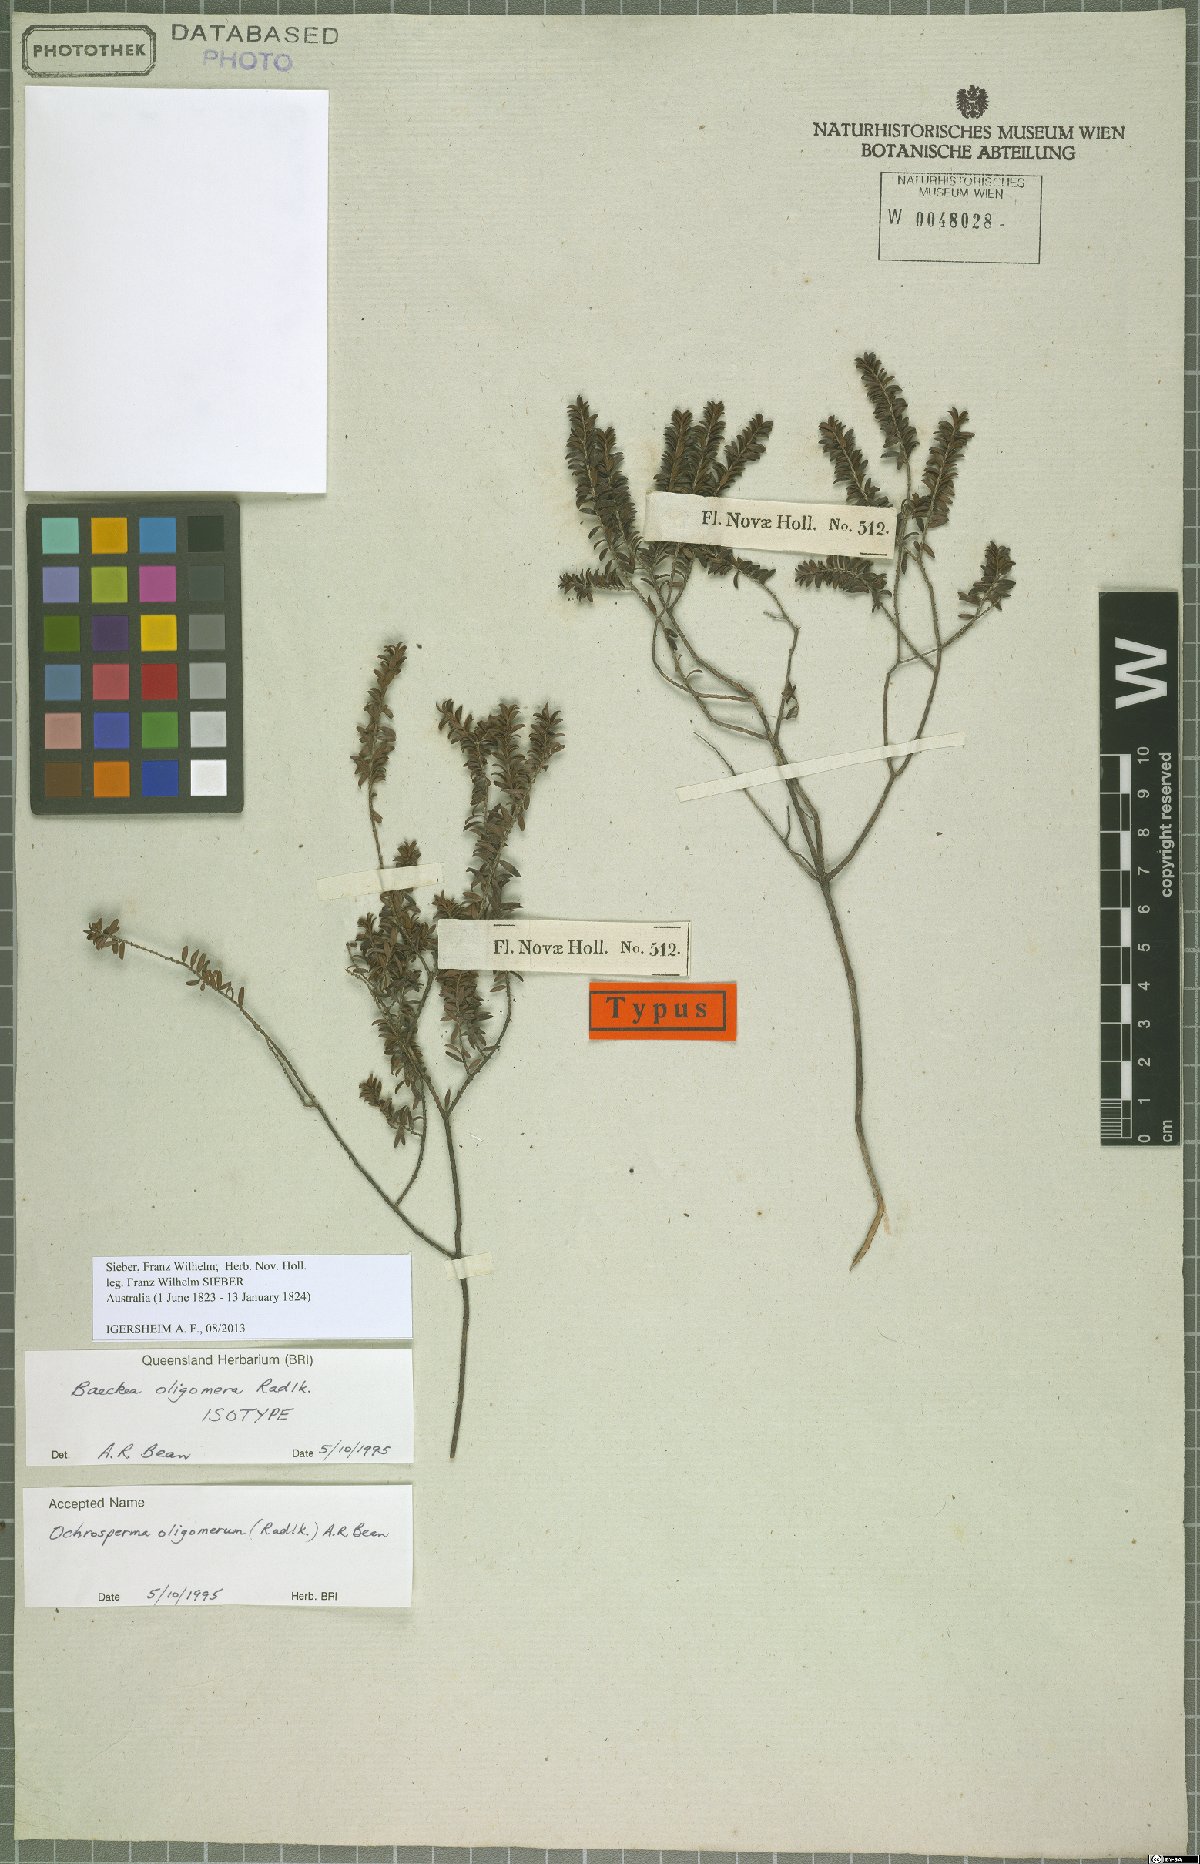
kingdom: Plantae
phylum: Tracheophyta
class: Magnoliopsida
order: Myrtales
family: Myrtaceae
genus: Ochrosperma
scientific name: Ochrosperma oligomerum
